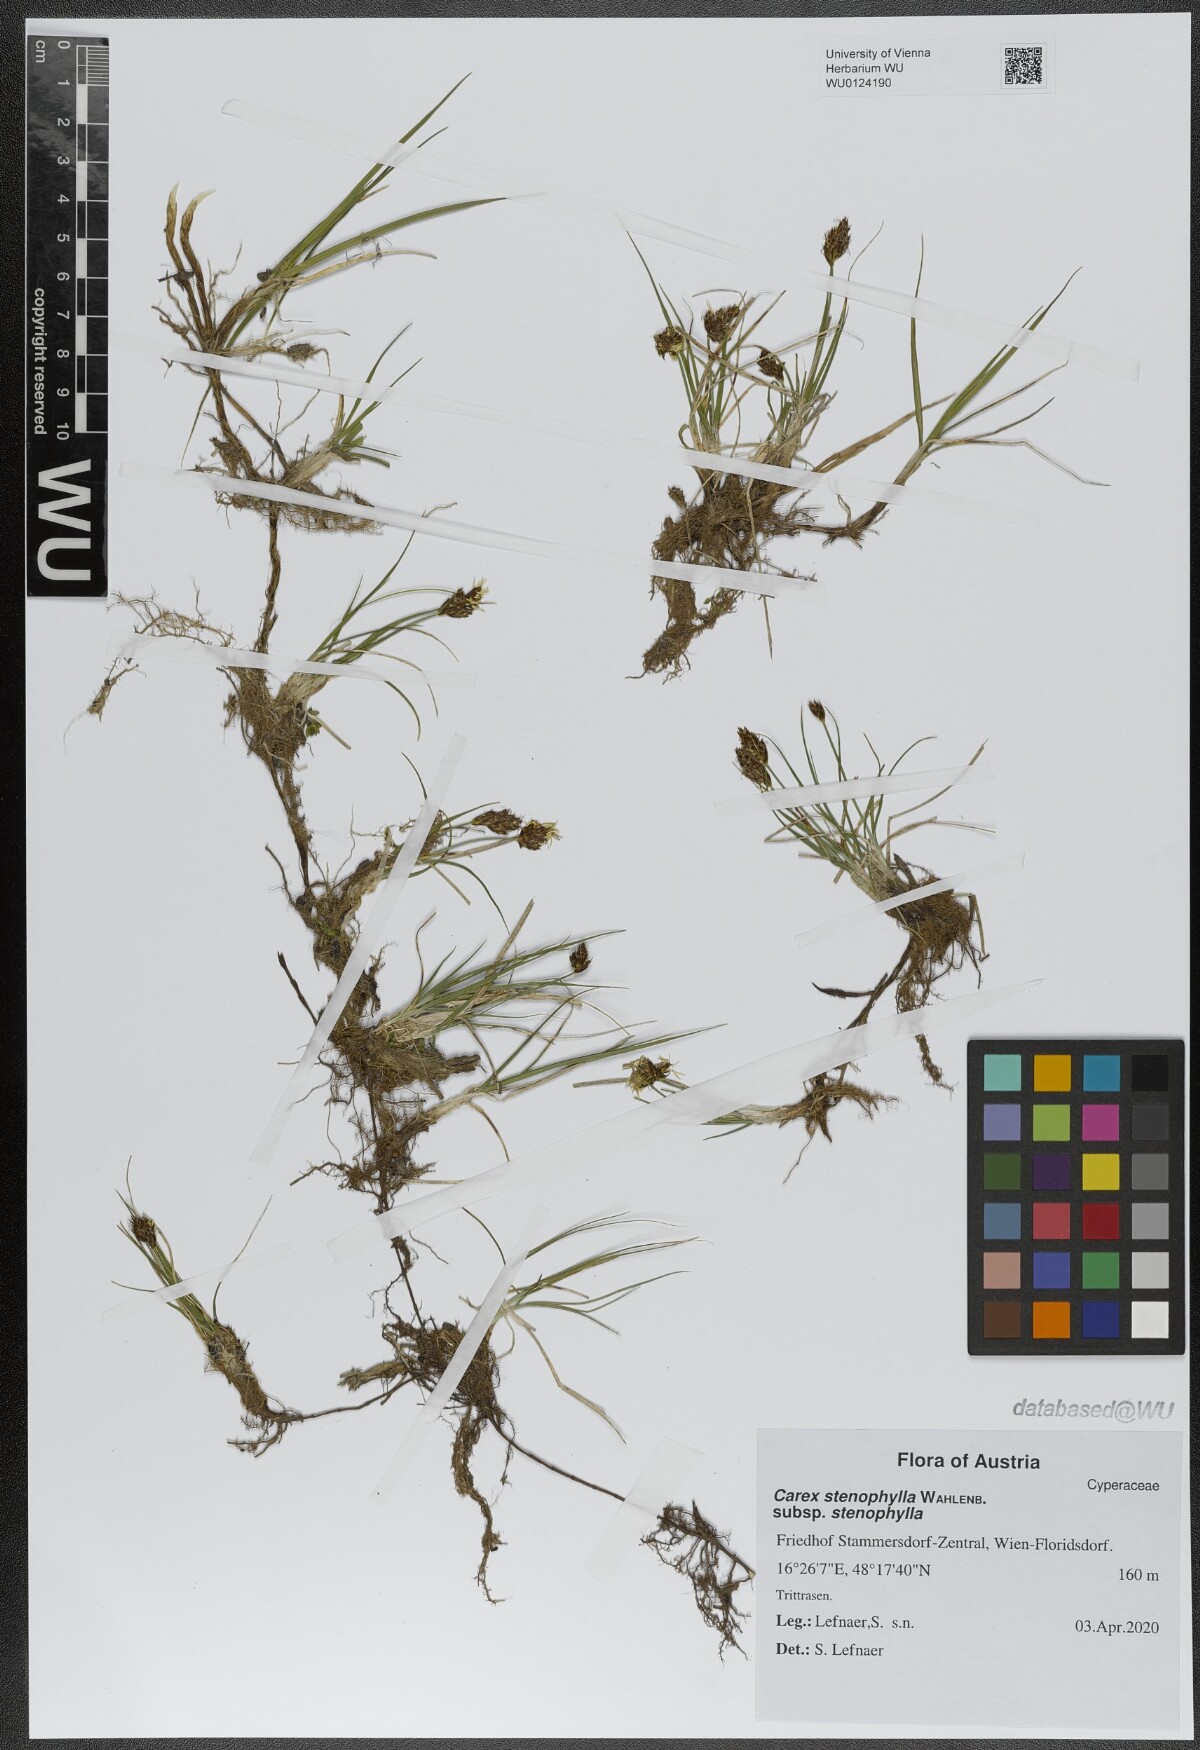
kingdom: Plantae
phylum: Tracheophyta
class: Liliopsida
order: Poales
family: Cyperaceae
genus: Carex
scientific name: Carex stenophylla
